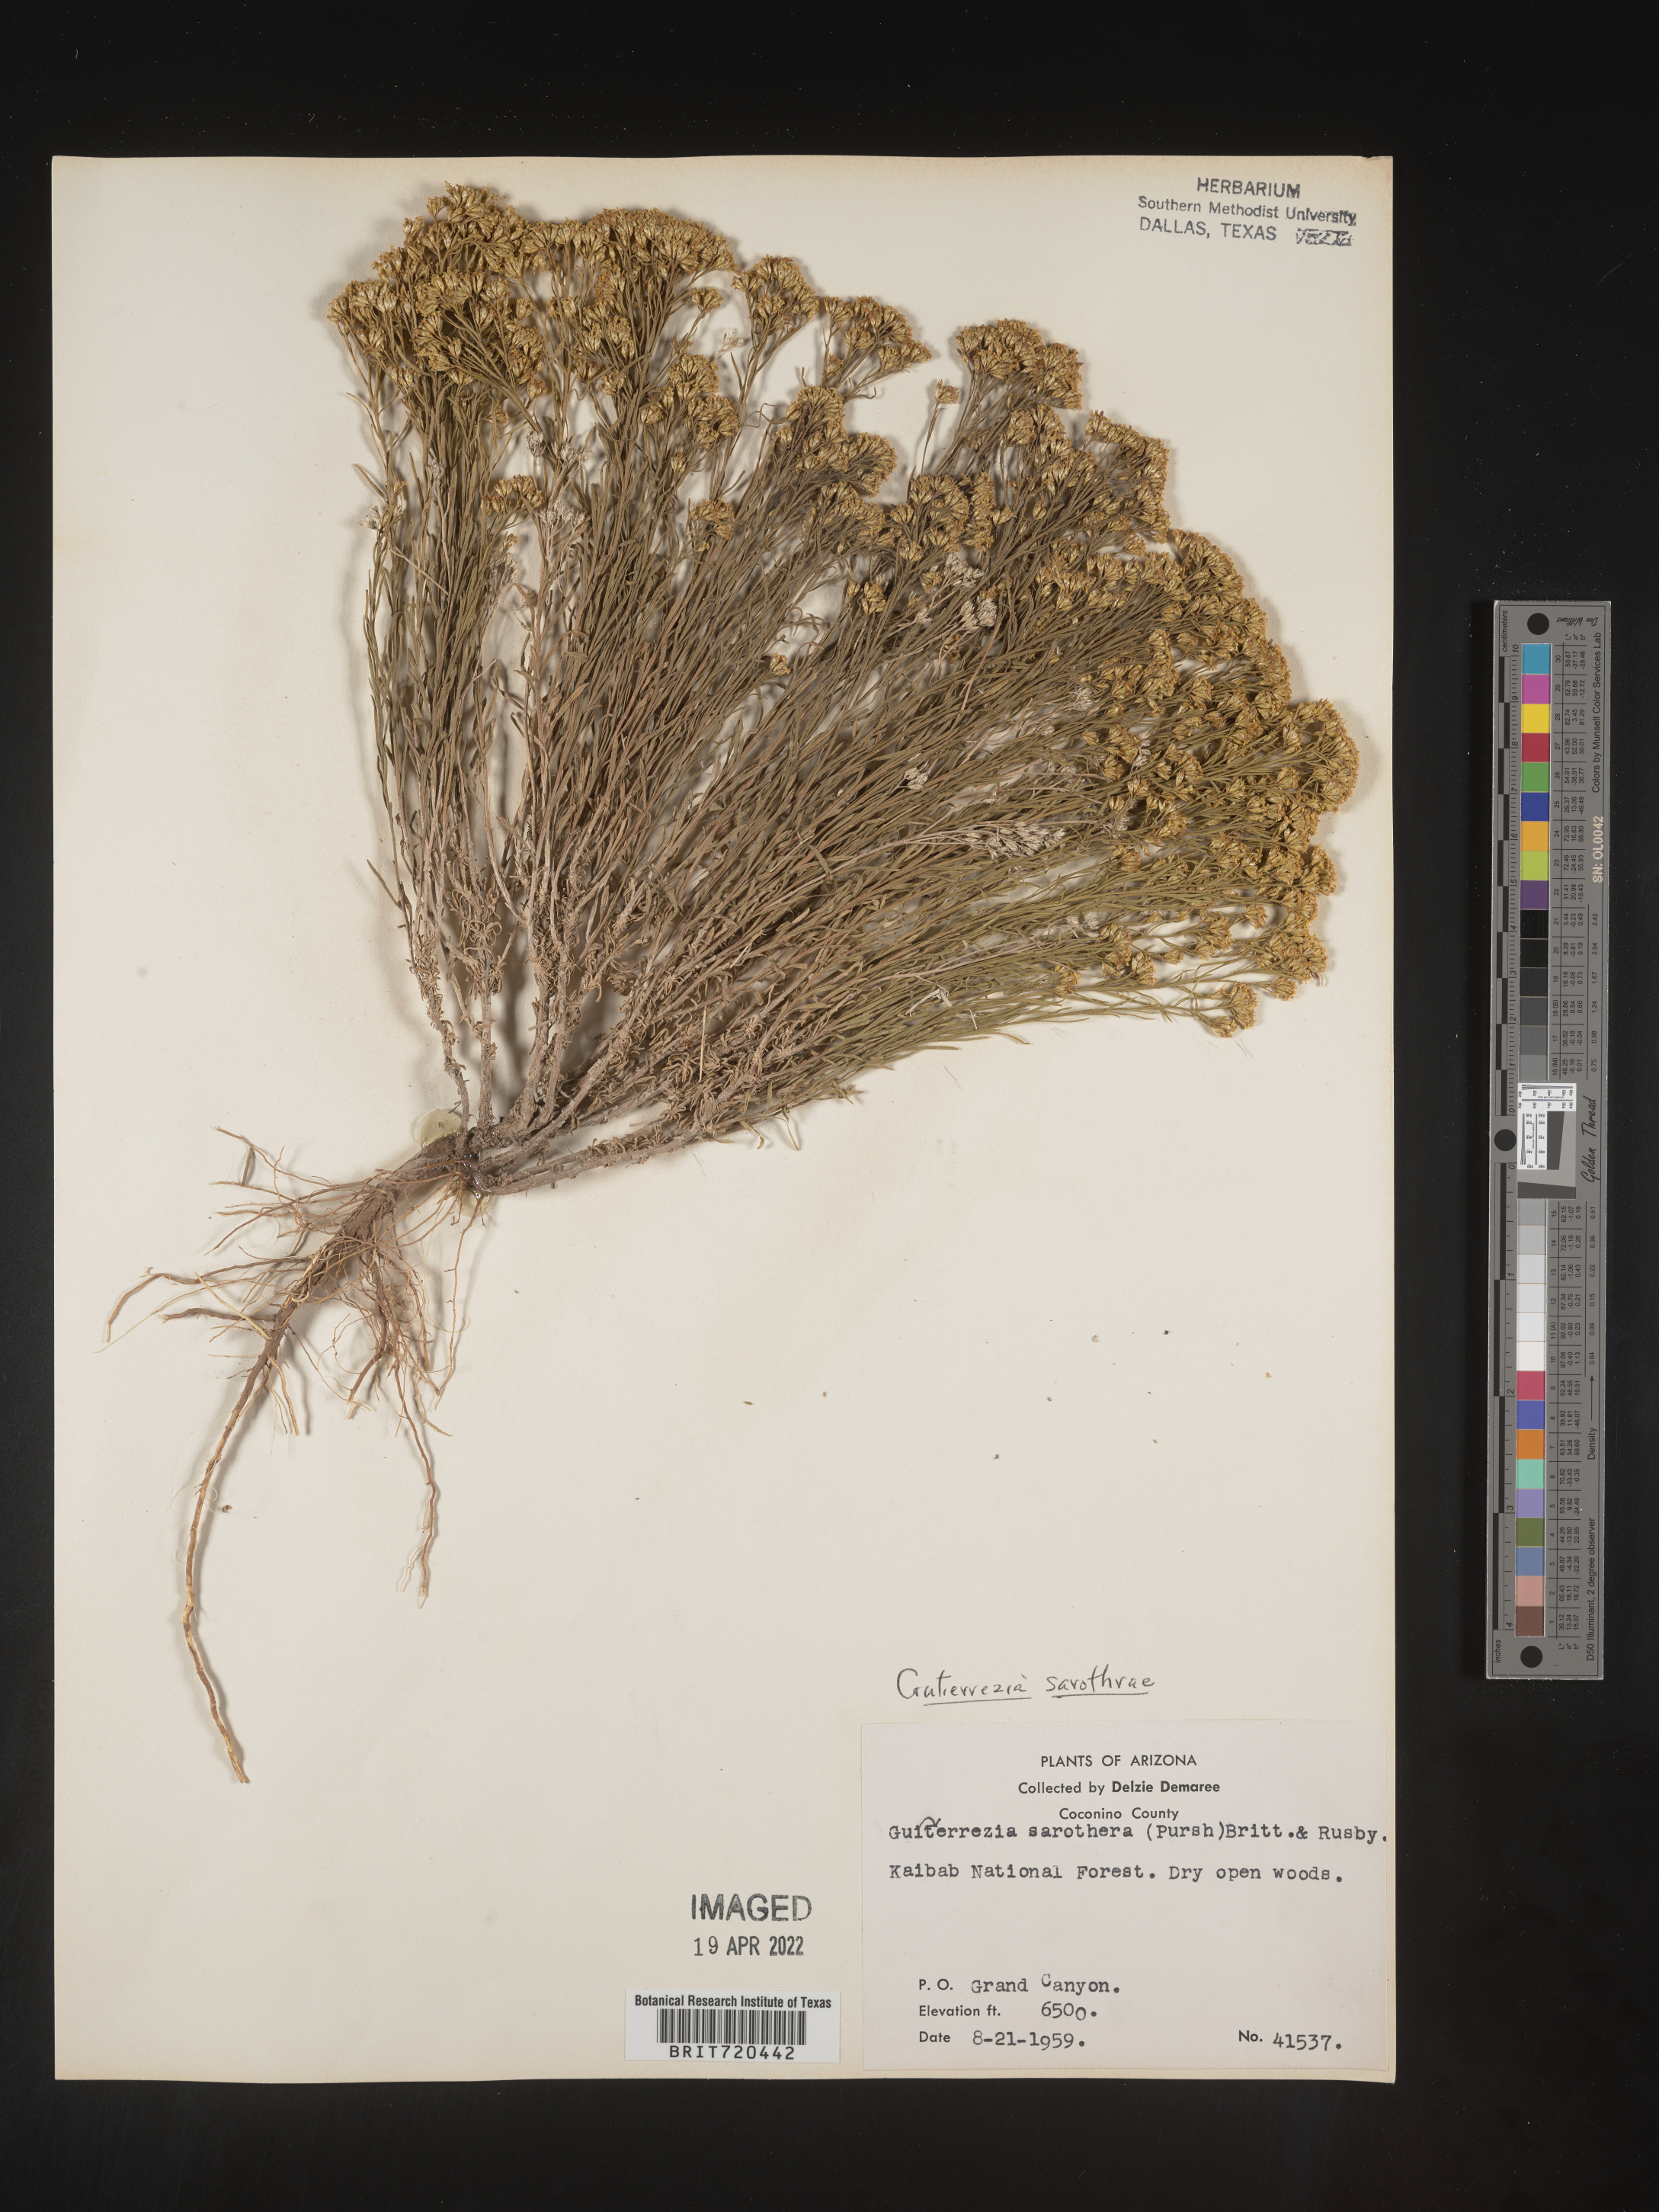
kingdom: Plantae
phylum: Tracheophyta
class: Magnoliopsida
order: Asterales
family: Asteraceae
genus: Gutierrezia
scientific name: Gutierrezia sarothrae
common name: Broom snakeweed
